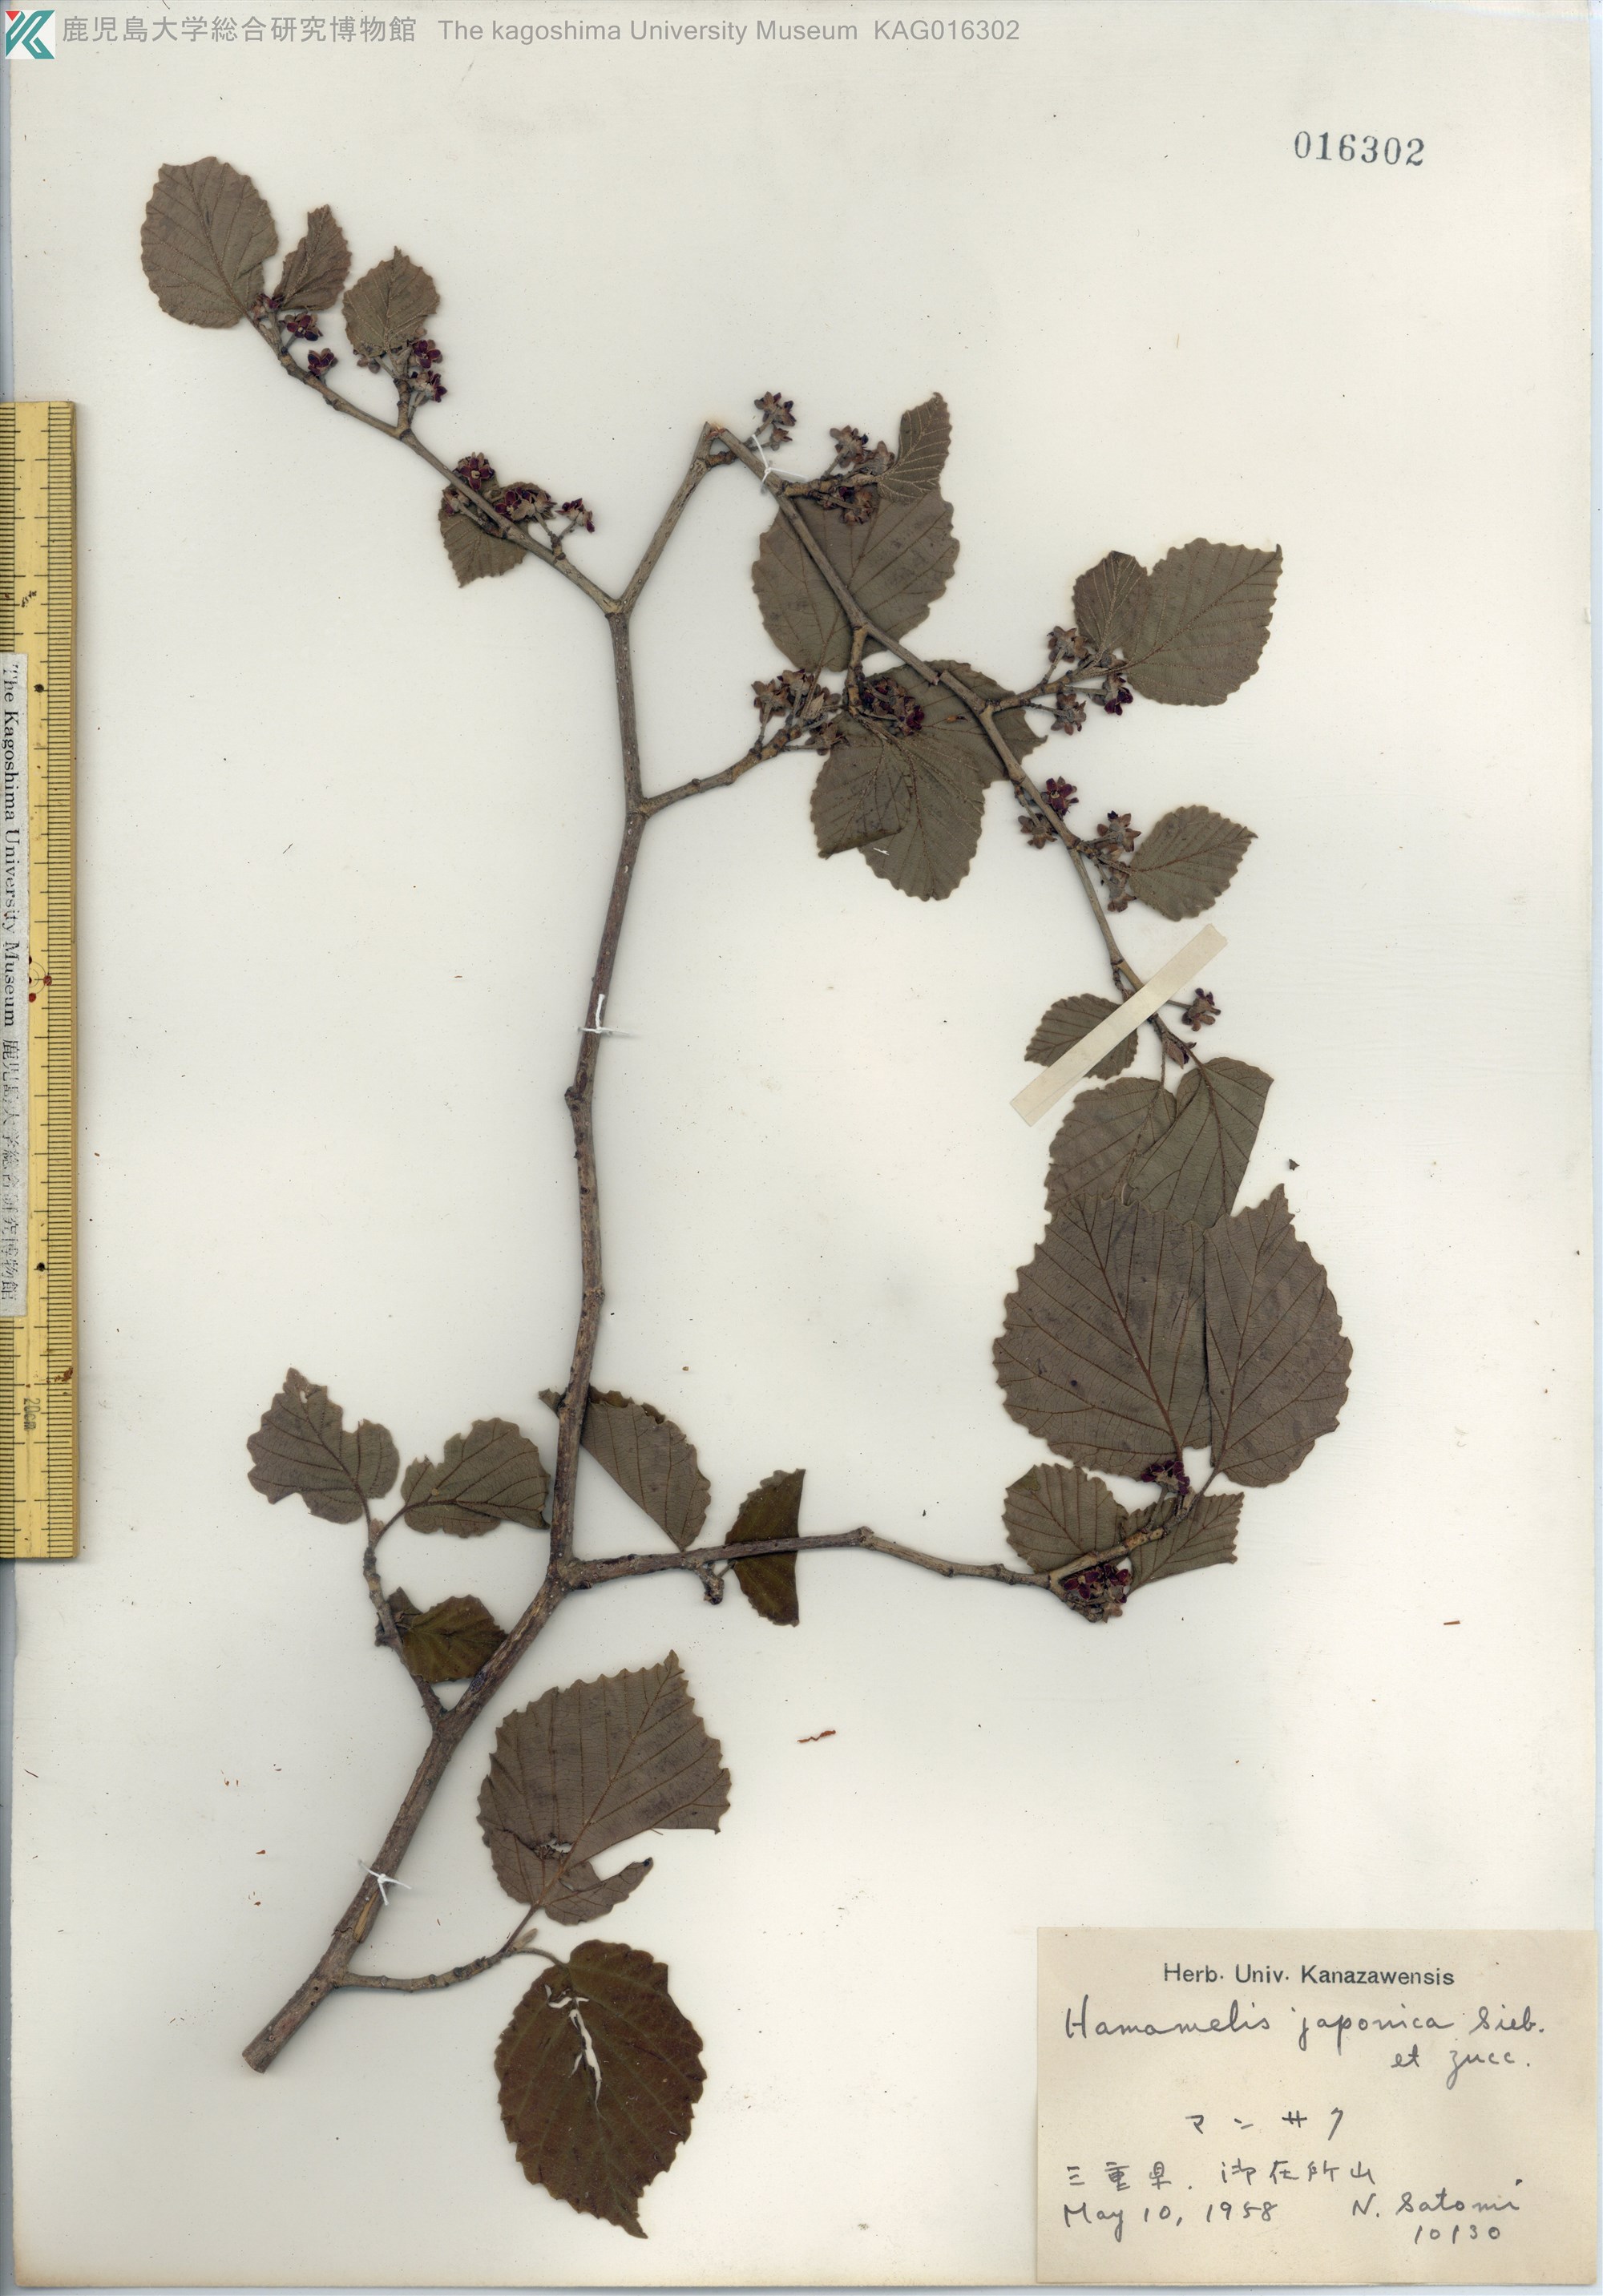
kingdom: Plantae
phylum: Tracheophyta
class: Magnoliopsida
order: Saxifragales
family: Hamamelidaceae
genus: Hamamelis
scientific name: Hamamelis japonica
